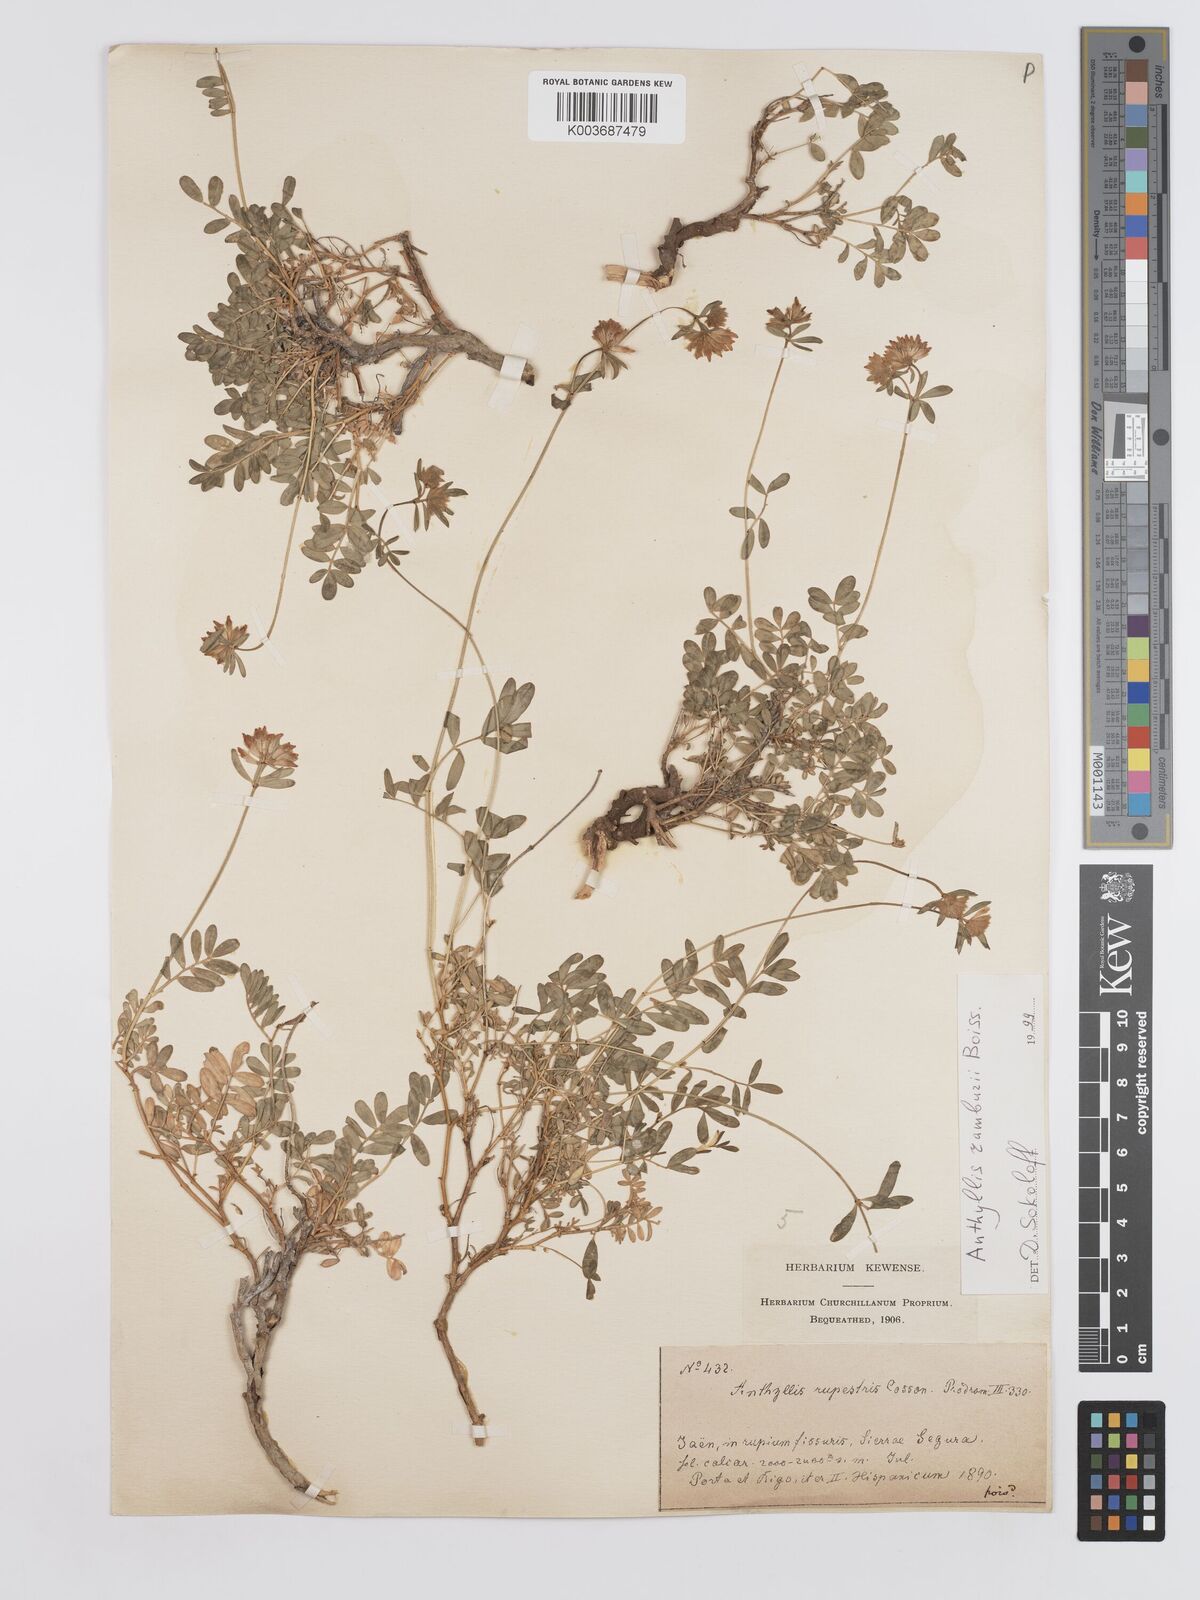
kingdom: Plantae
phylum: Tracheophyta
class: Magnoliopsida
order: Fabales
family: Fabaceae
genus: Anthyllis
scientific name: Anthyllis ramburei
